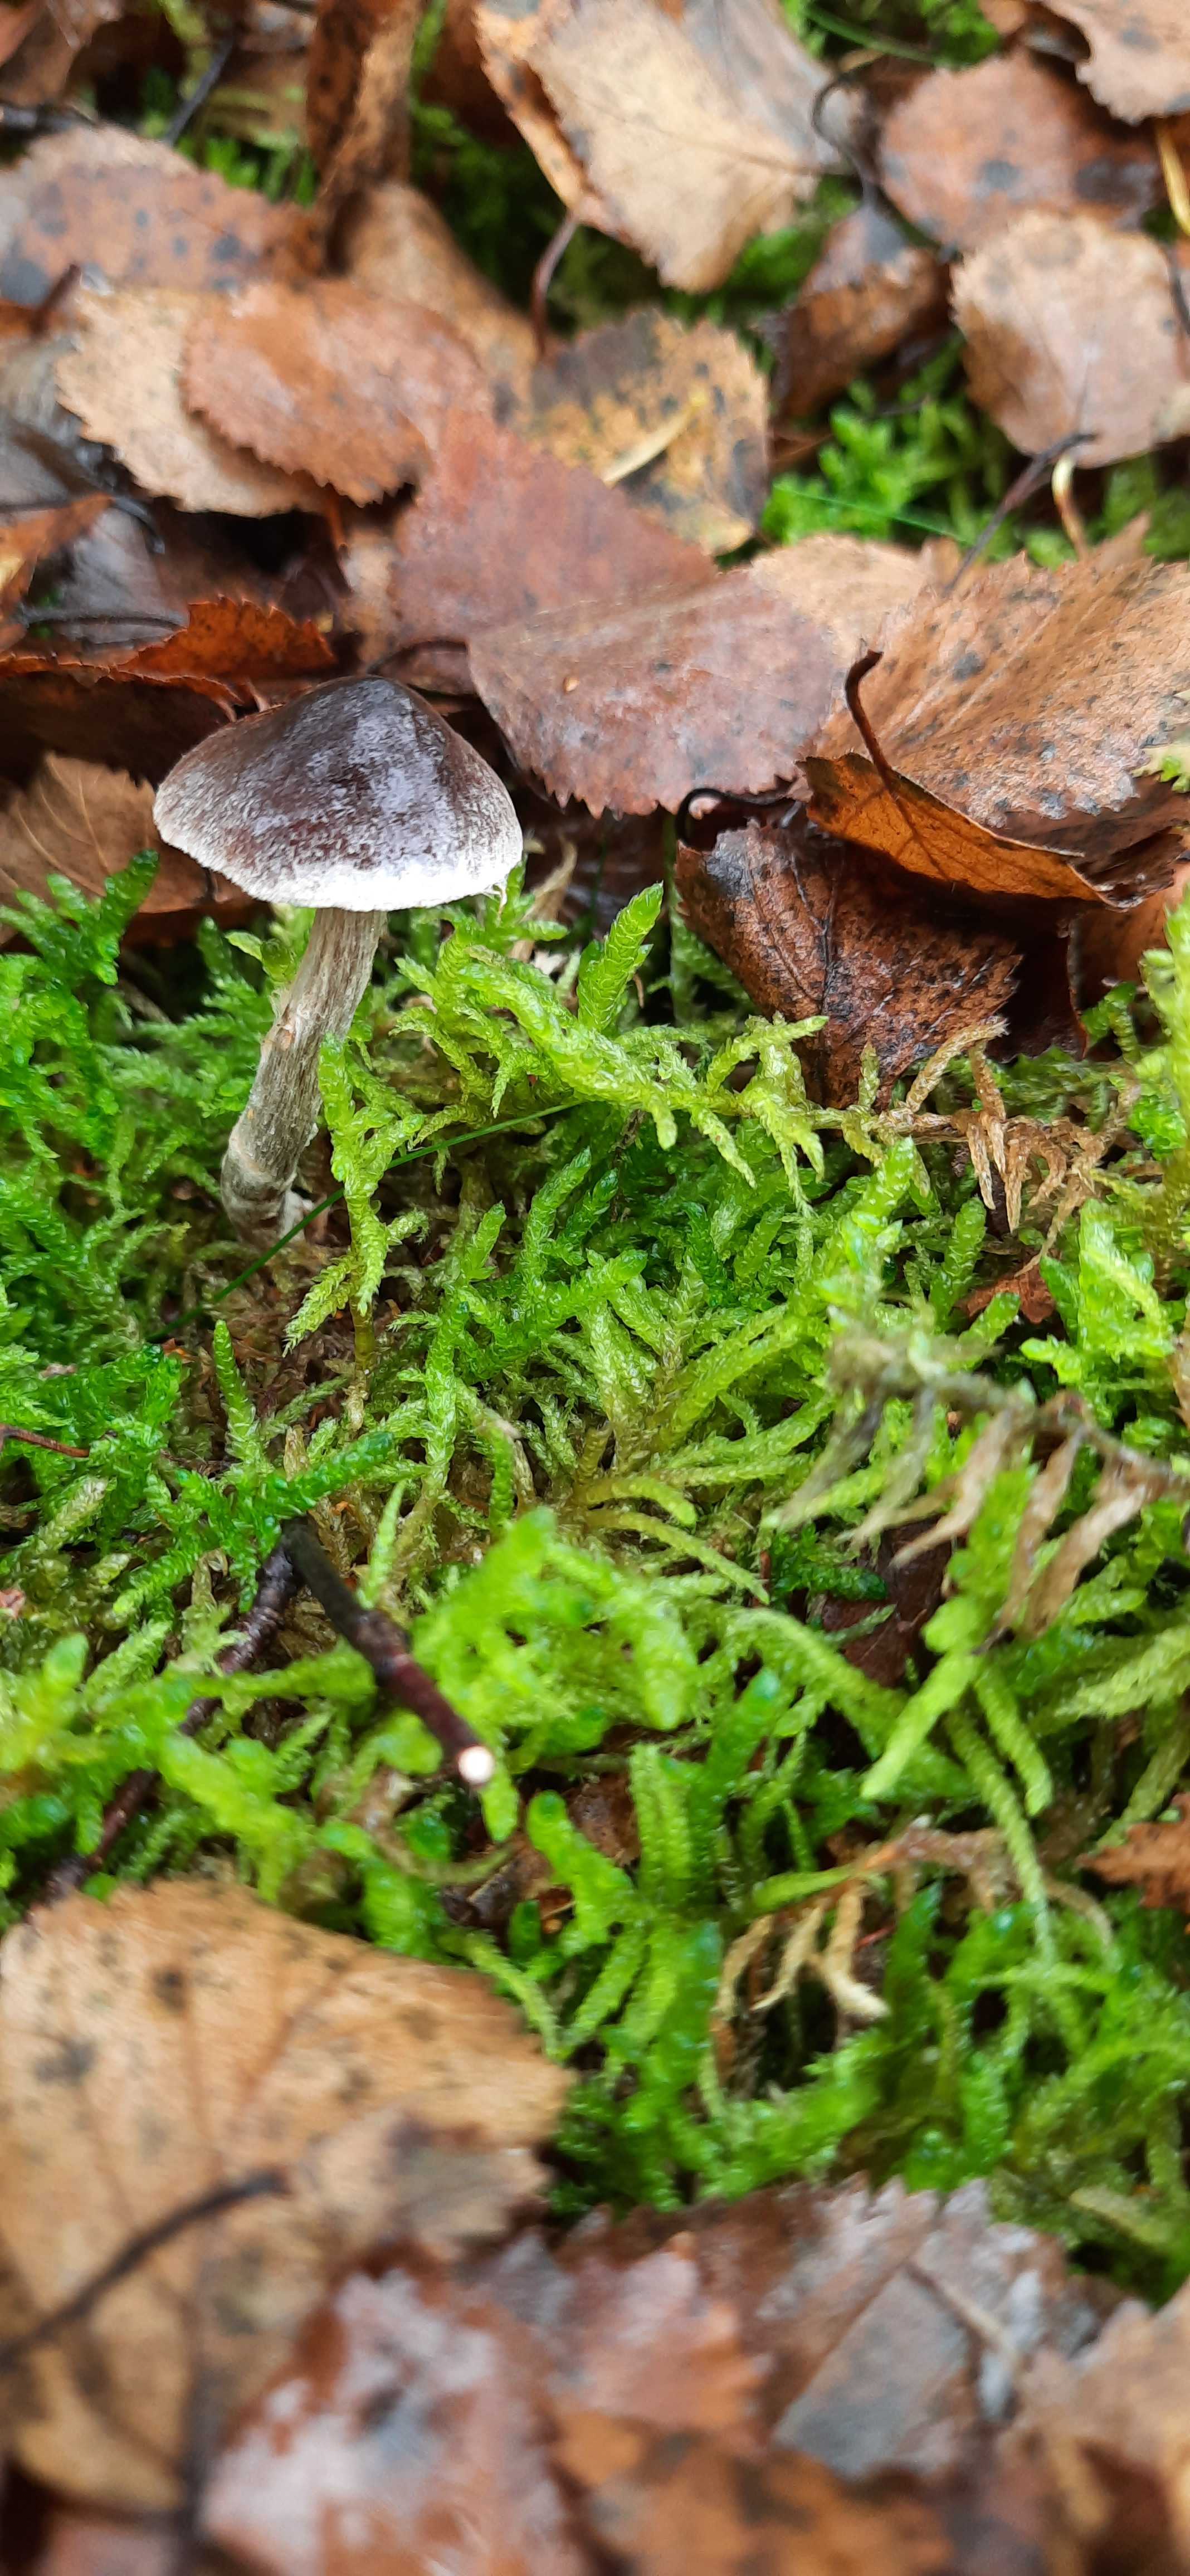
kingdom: Fungi
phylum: Basidiomycota
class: Agaricomycetes
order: Agaricales
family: Cortinariaceae
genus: Cortinarius
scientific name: Cortinarius
